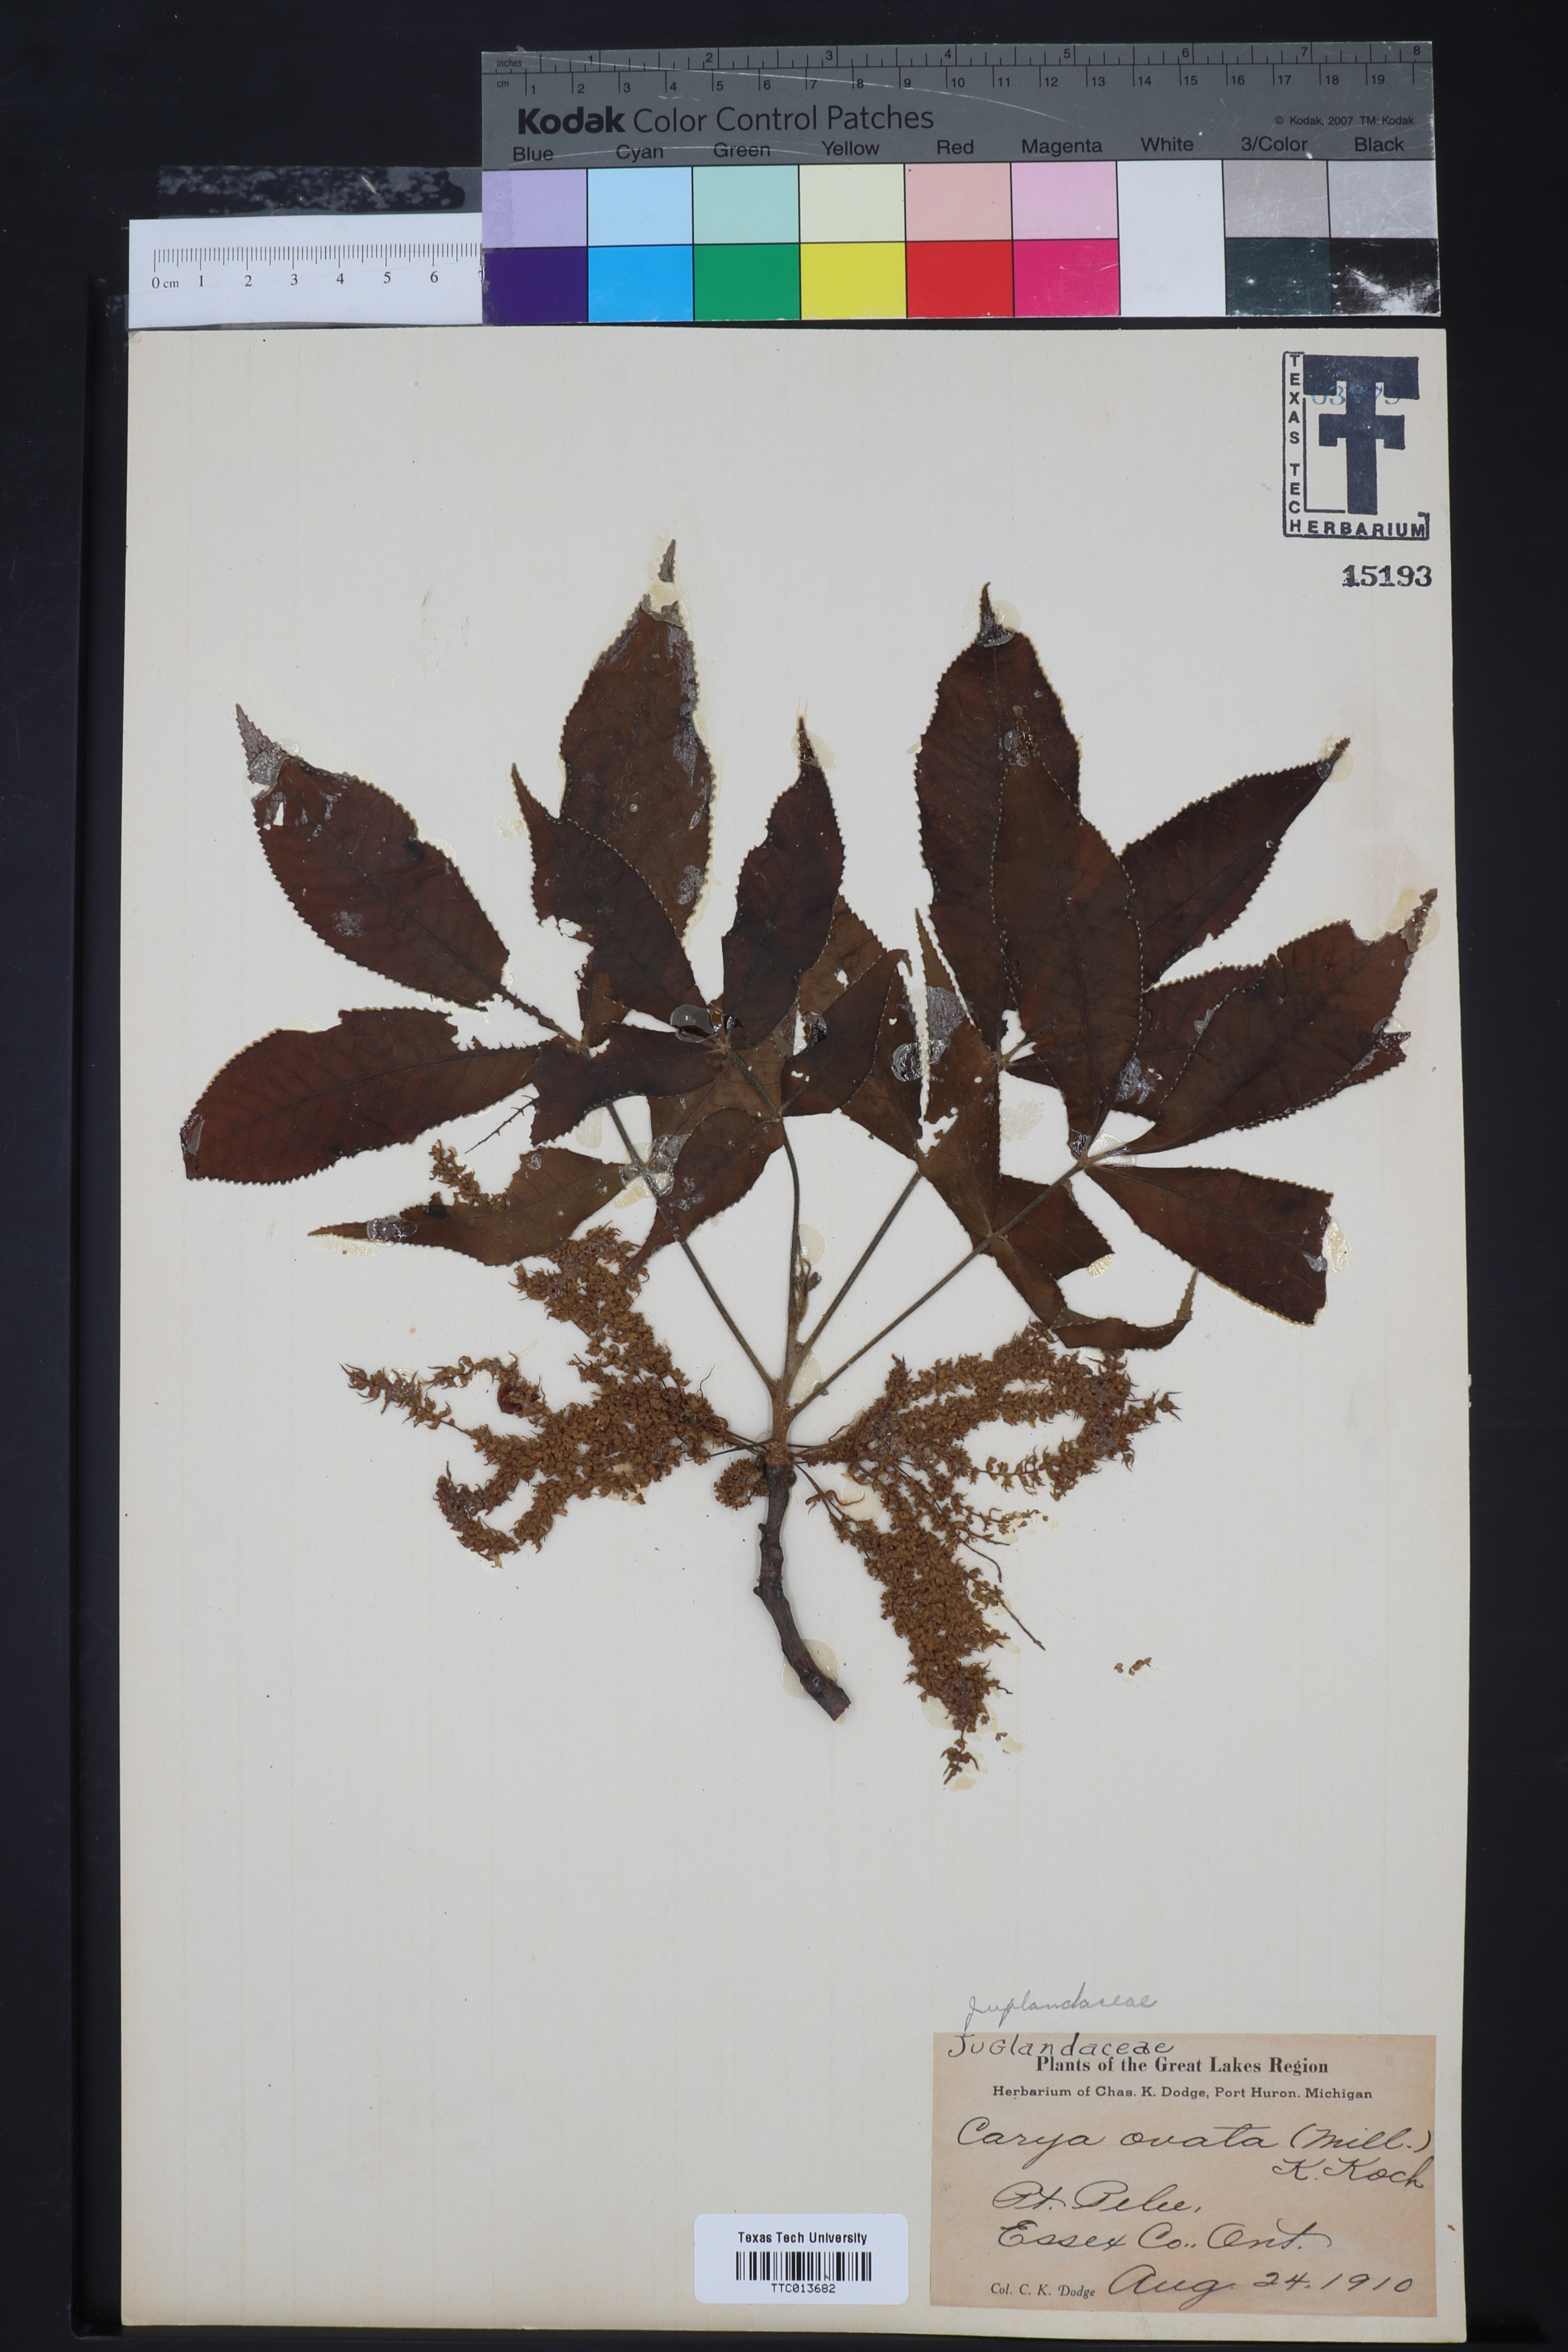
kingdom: Plantae
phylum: Tracheophyta
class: Magnoliopsida
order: Fagales
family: Juglandaceae
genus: Carya
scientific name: Carya ovata
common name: Shagbark hickory
